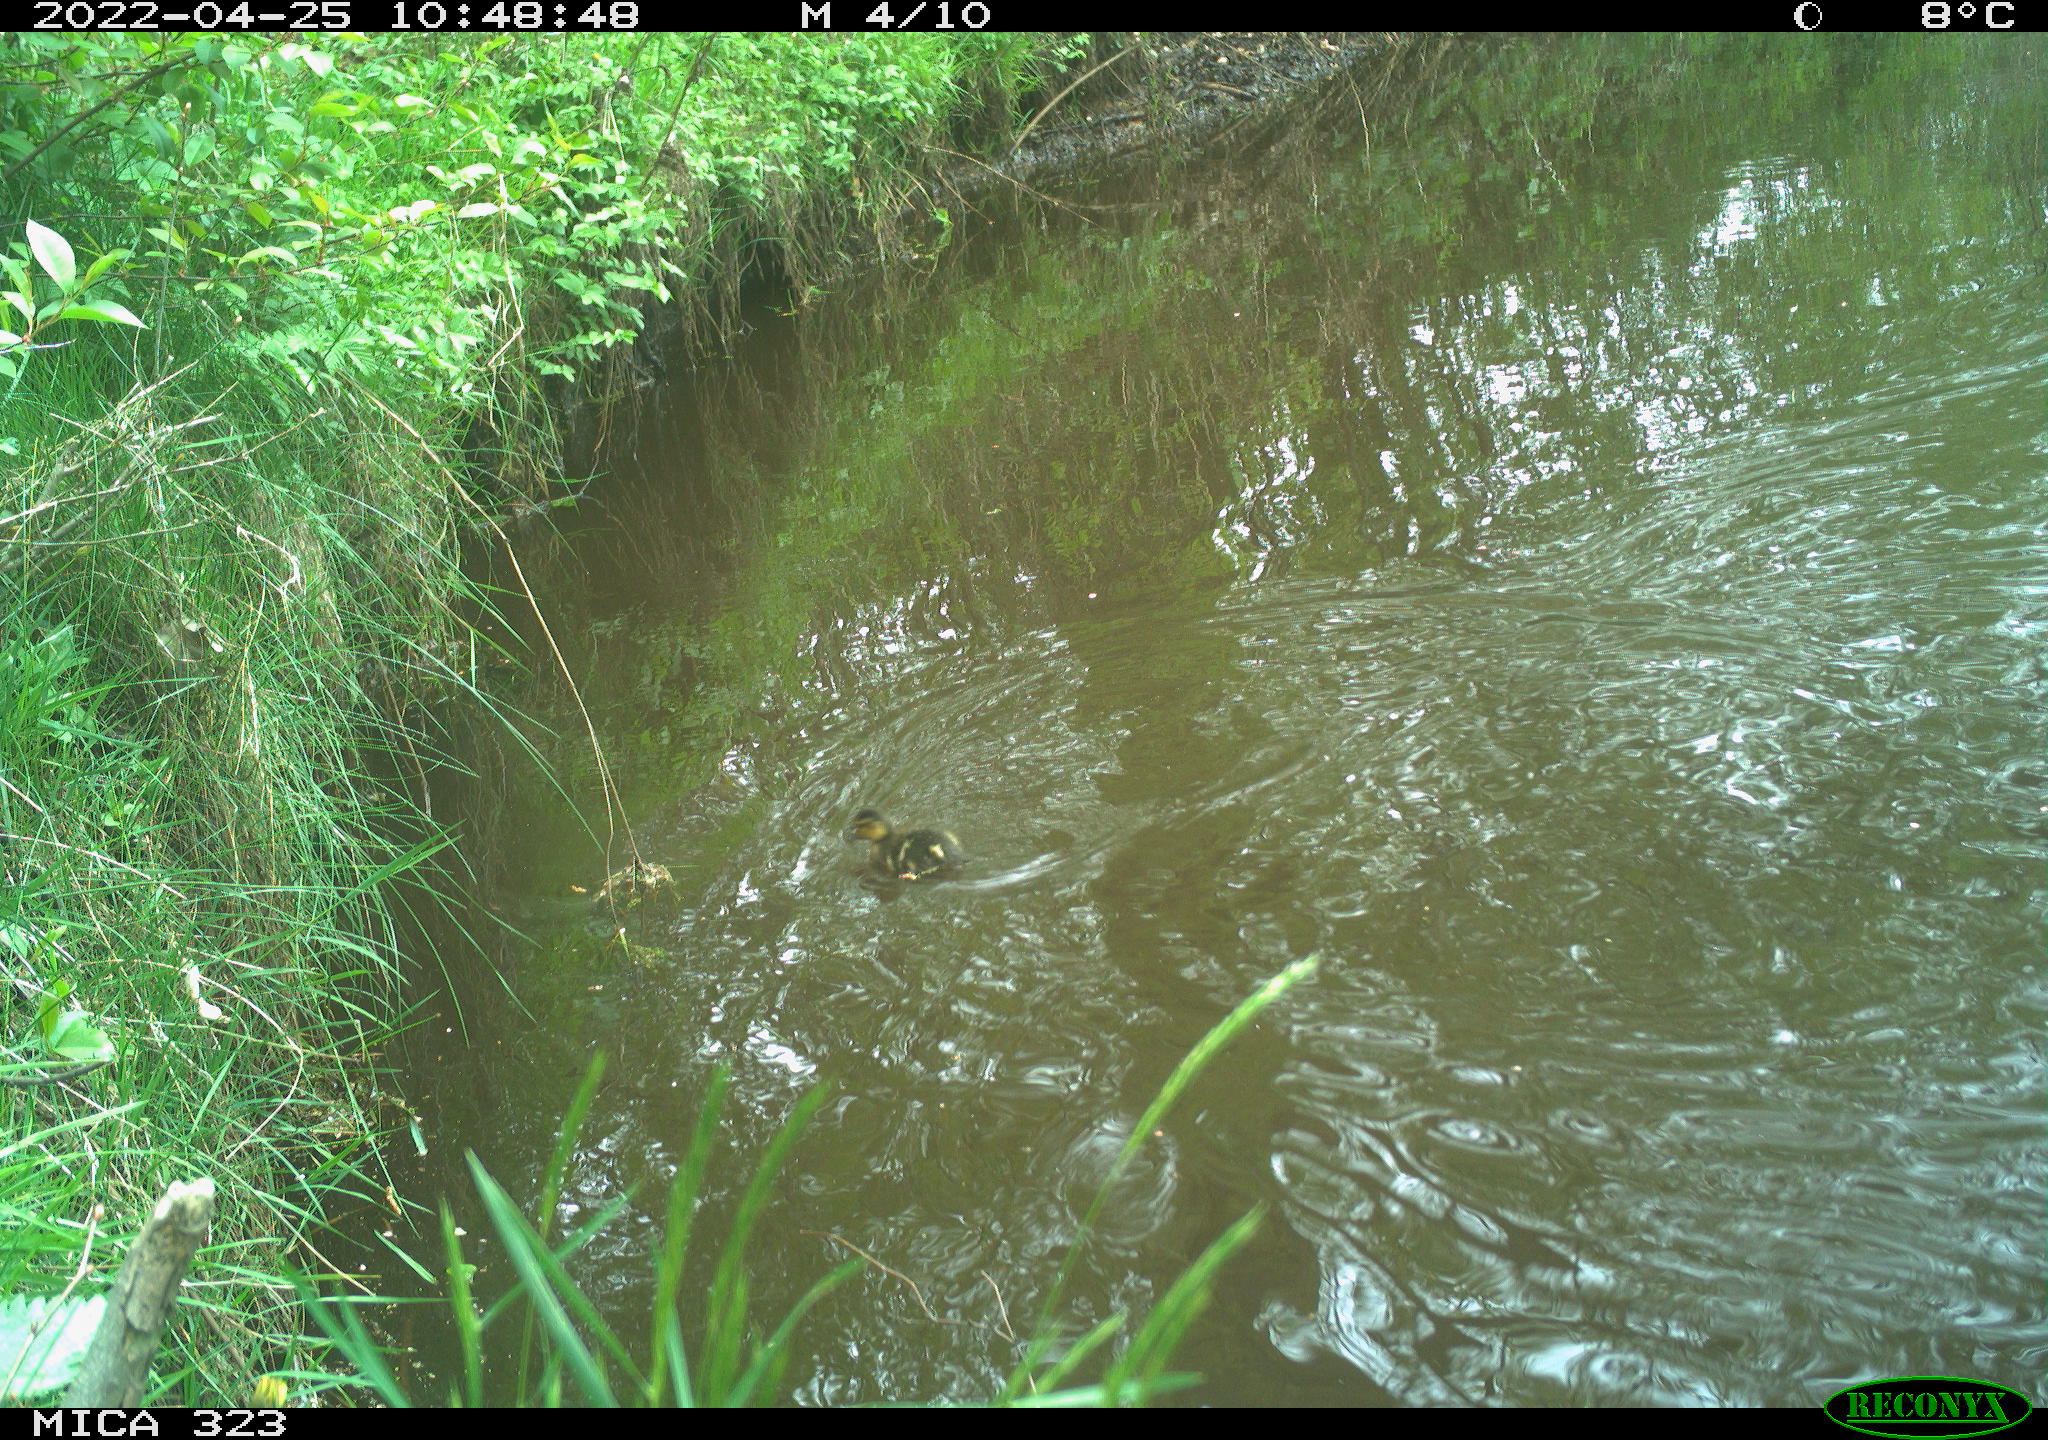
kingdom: Animalia
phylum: Chordata
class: Aves
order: Anseriformes
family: Anatidae
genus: Anas
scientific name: Anas
